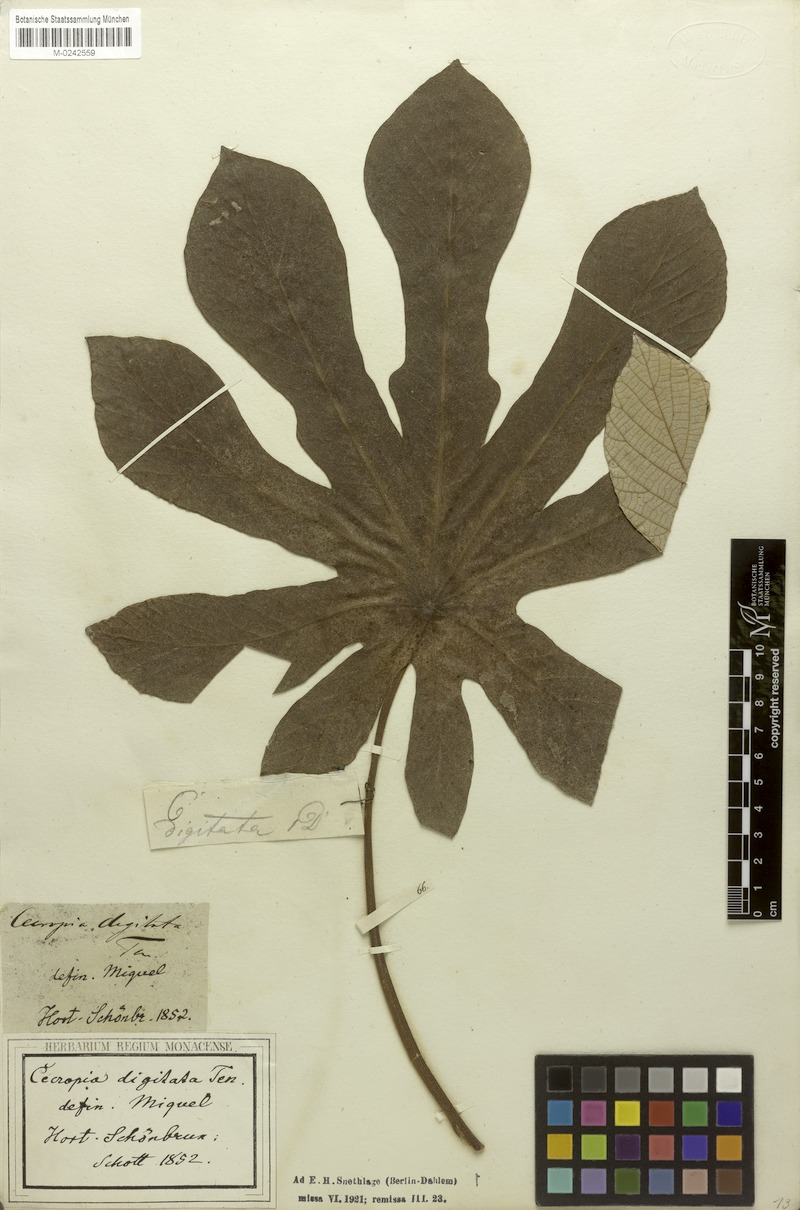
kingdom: Plantae
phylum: Tracheophyta
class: Magnoliopsida
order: Rosales
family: Urticaceae
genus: Cecropia
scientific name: Cecropia pachystachya
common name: Ambay pumpwood
